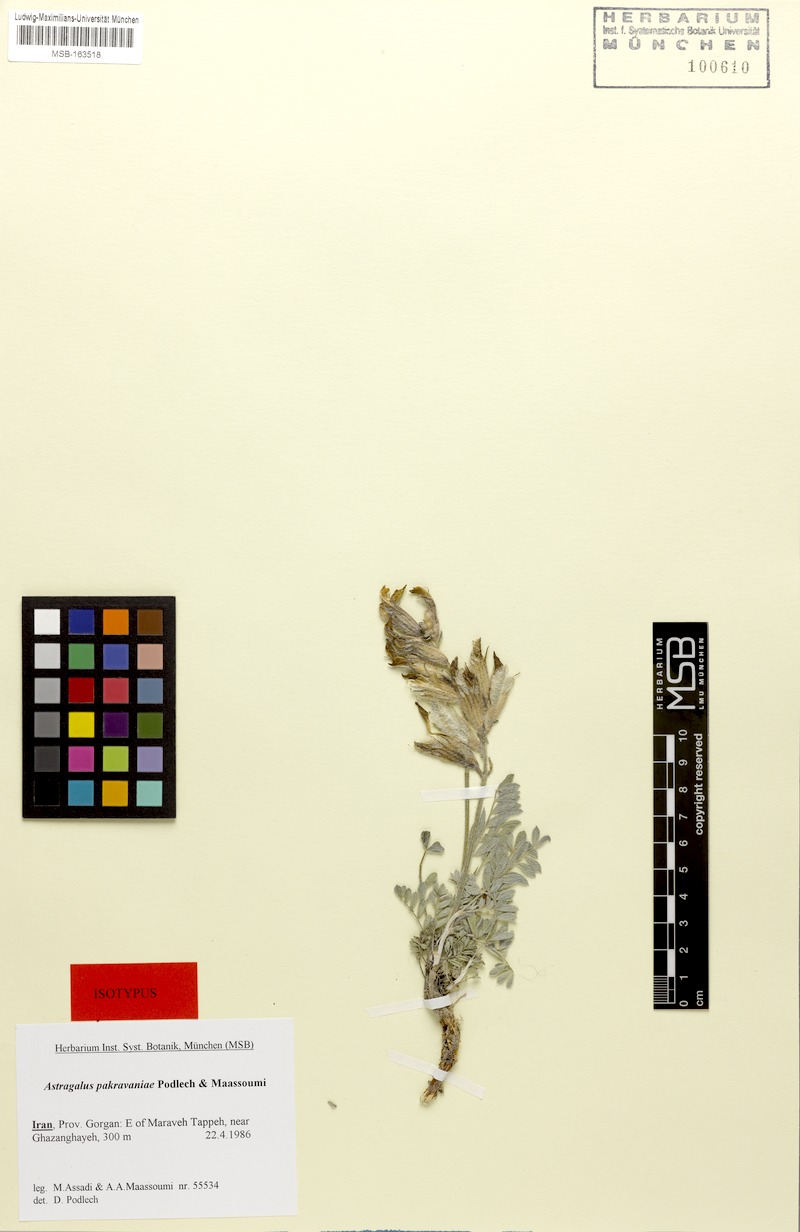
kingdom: Plantae
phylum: Tracheophyta
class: Magnoliopsida
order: Fabales
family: Fabaceae
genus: Astragalus
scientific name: Astragalus pakravaniae
